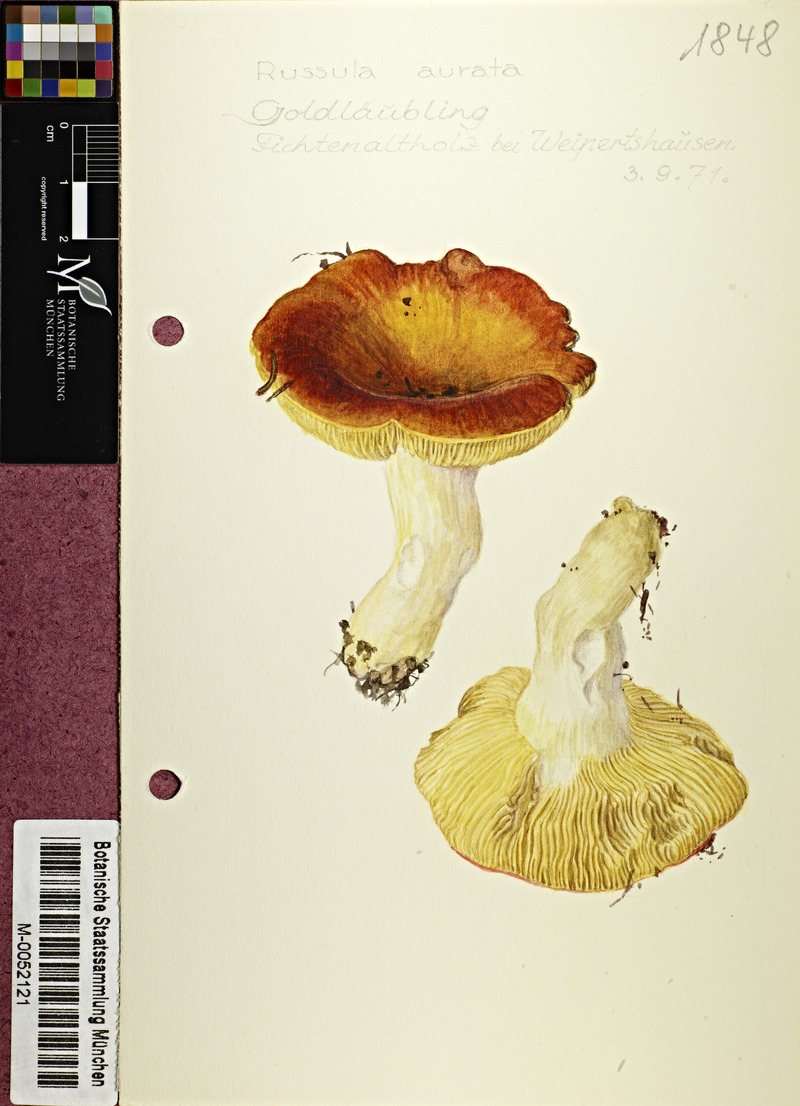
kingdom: Fungi
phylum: Basidiomycota
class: Agaricomycetes
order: Russulales
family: Russulaceae
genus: Russula
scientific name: Russula aurea
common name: Gilded brittlegill
